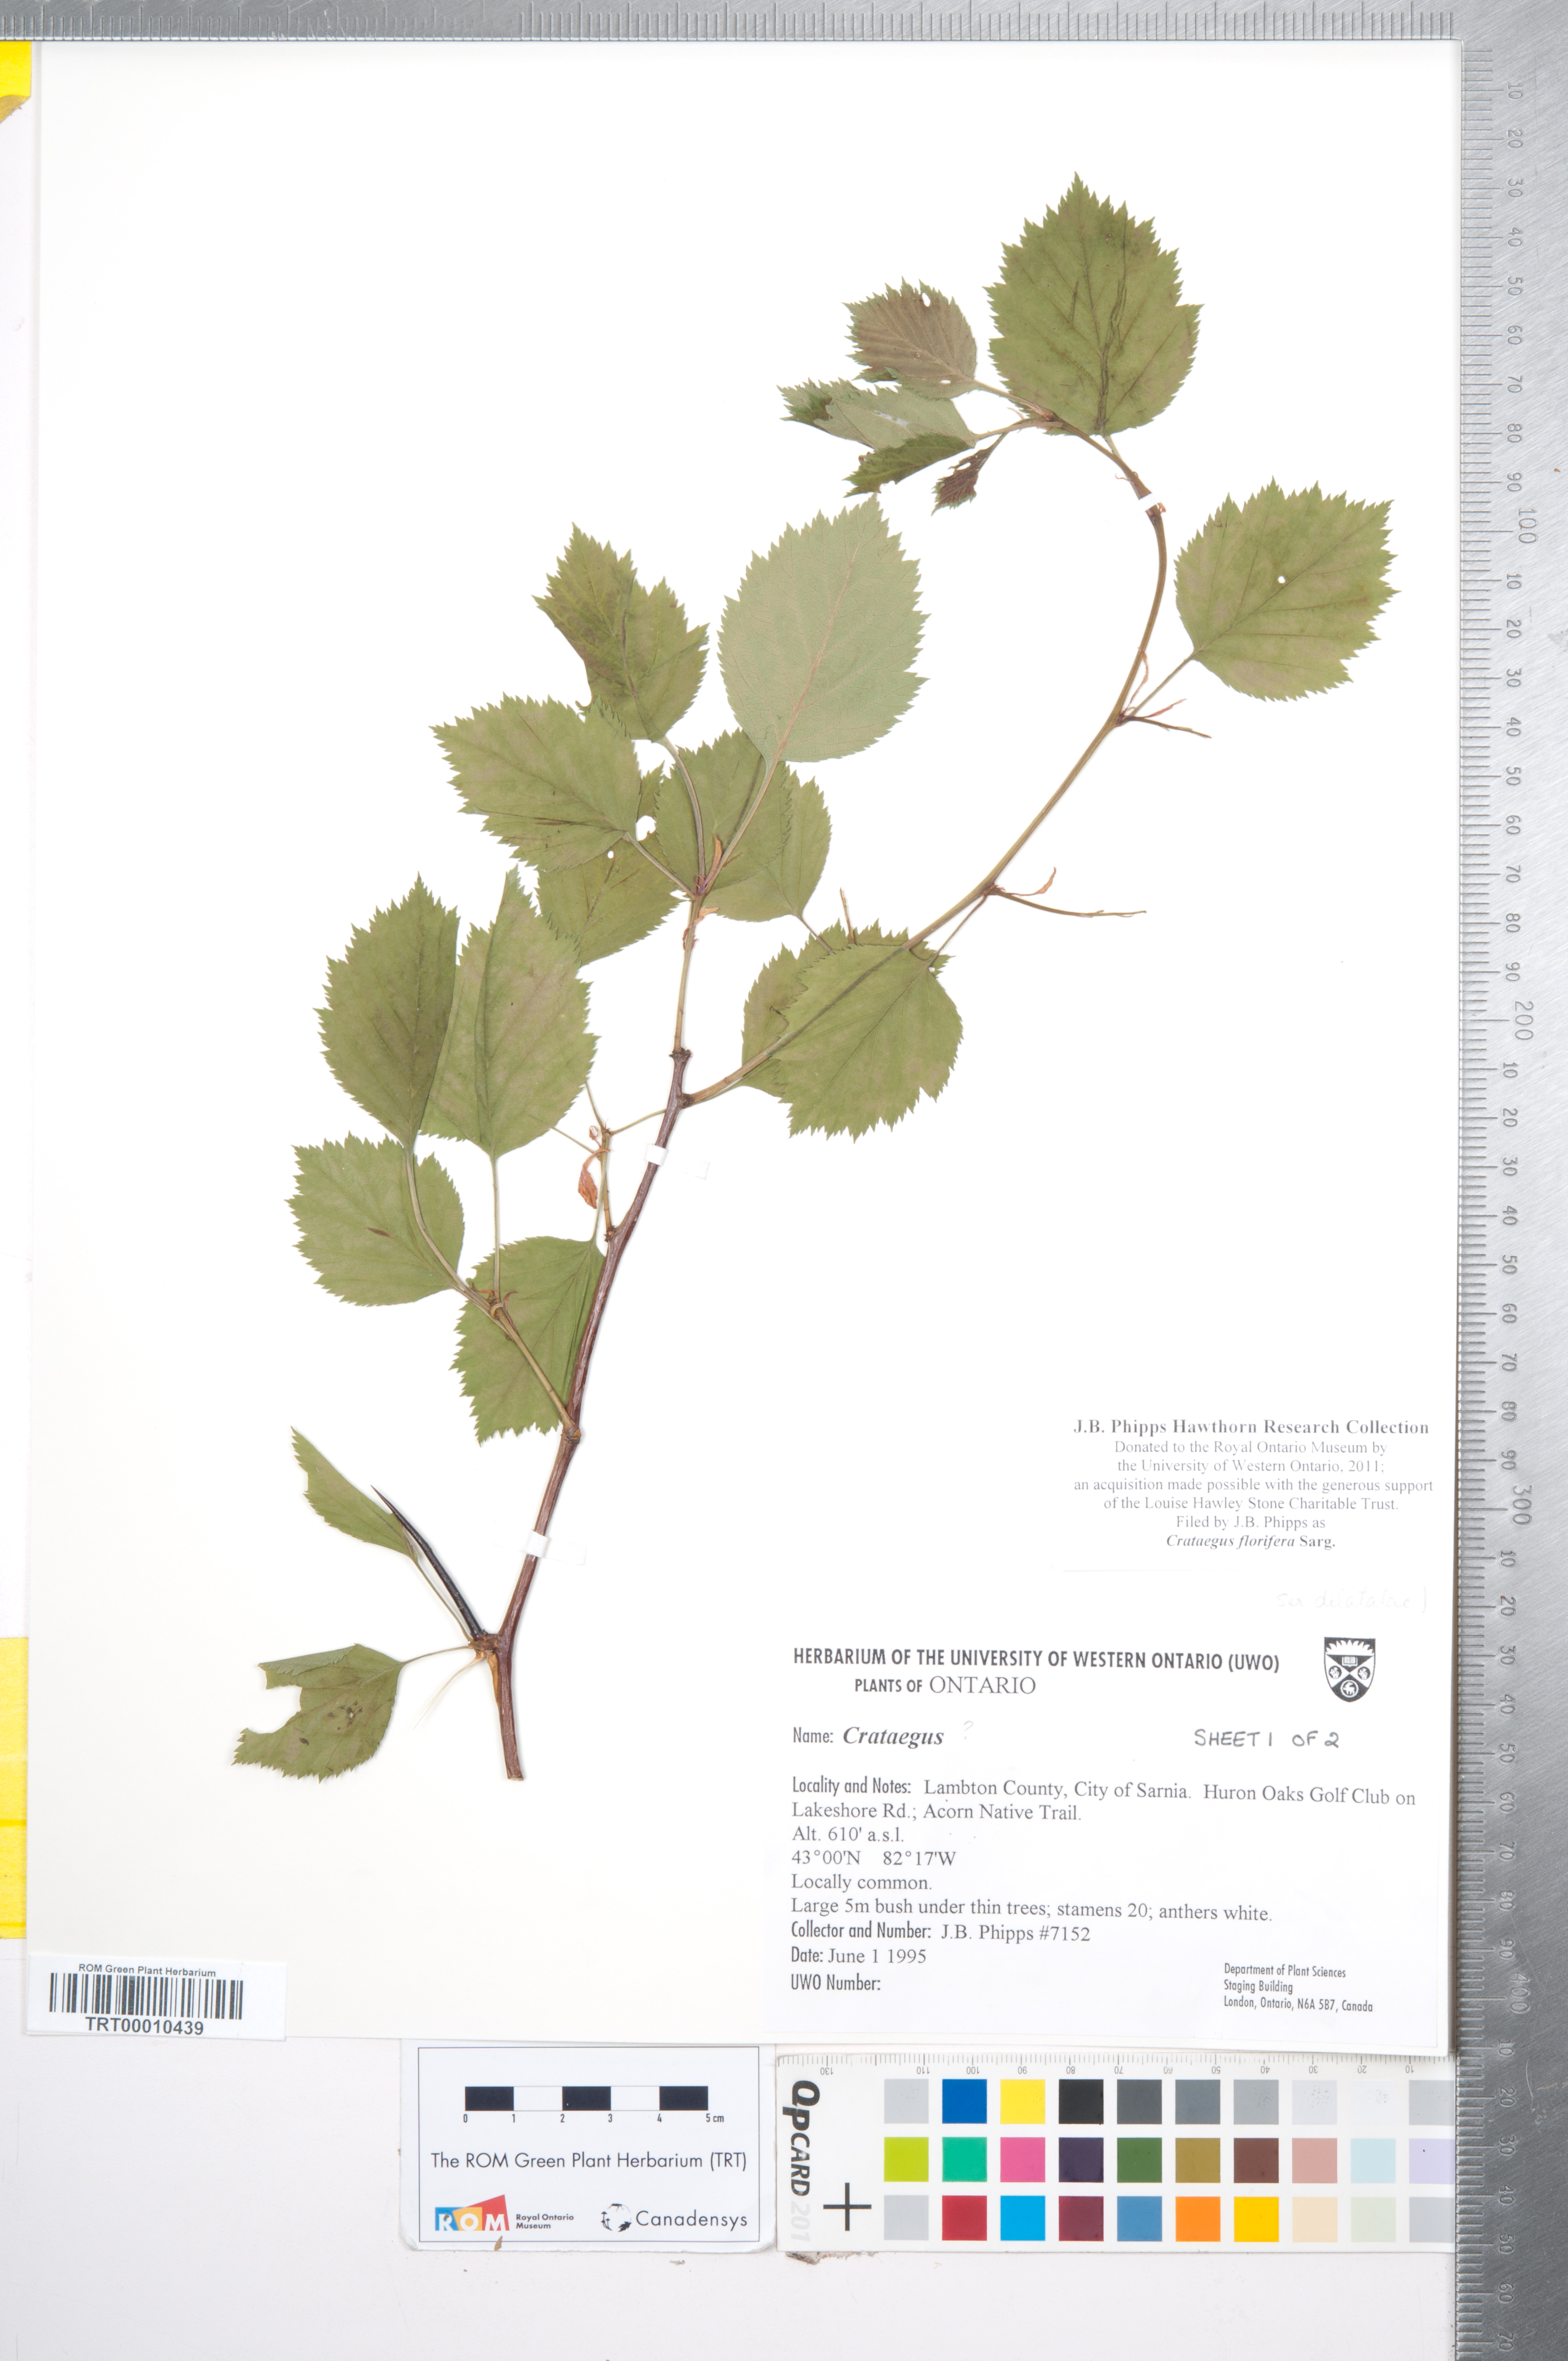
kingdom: Plantae
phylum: Tracheophyta
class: Magnoliopsida
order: Rosales
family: Rosaceae
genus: Crataegus
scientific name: Crataegus florifera
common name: Woodland hawthorn
